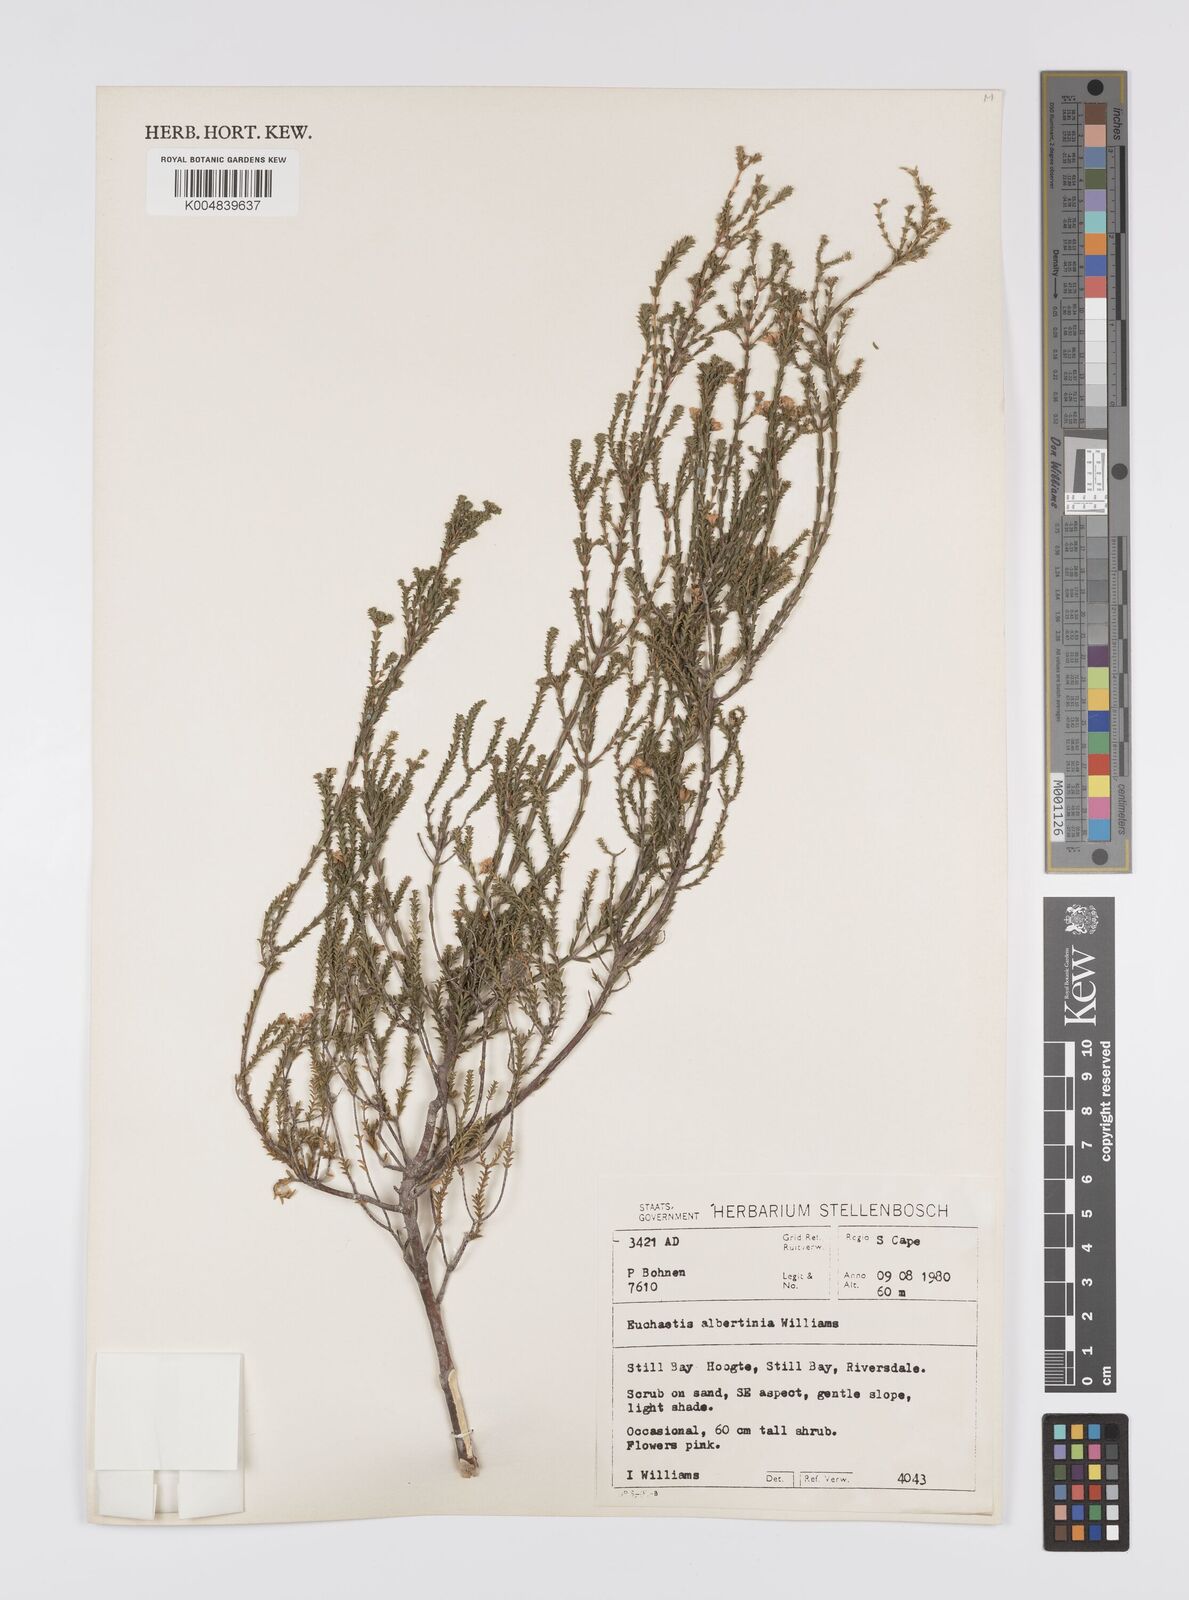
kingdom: Plantae
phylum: Tracheophyta
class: Magnoliopsida
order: Sapindales
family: Rutaceae
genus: Euchaetis
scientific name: Euchaetis albertiniana
